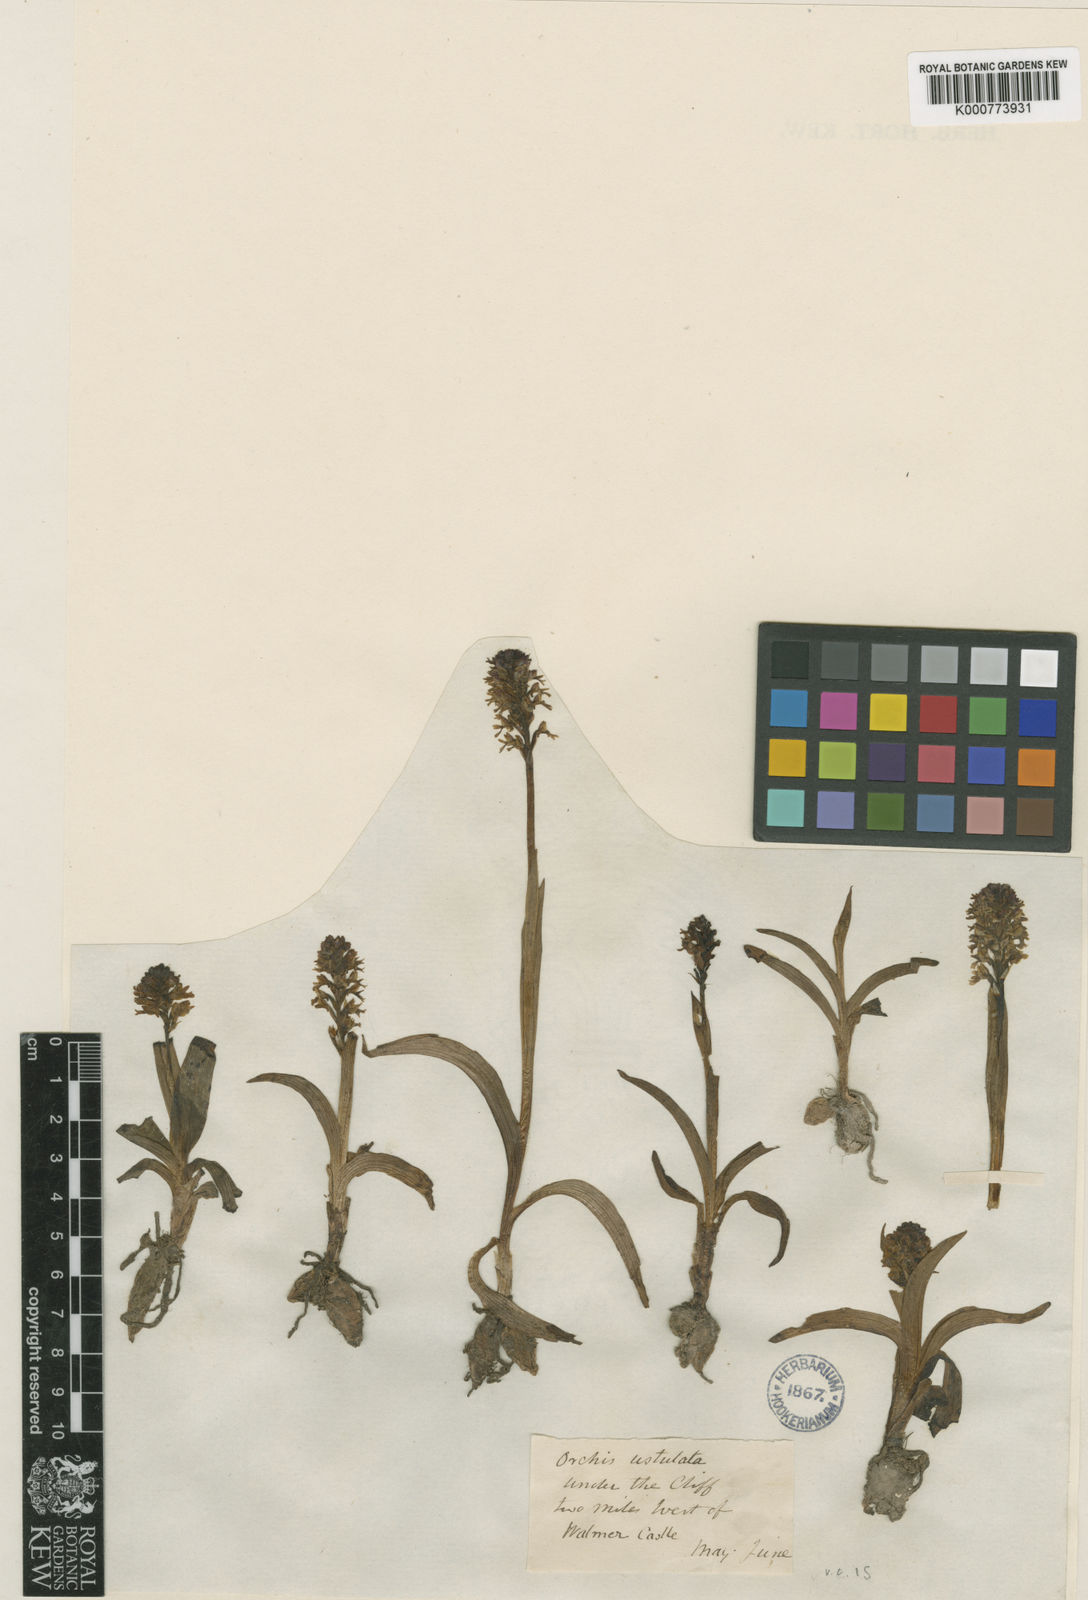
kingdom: Plantae
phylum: Tracheophyta
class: Liliopsida
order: Asparagales
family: Orchidaceae
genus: Neotinea
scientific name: Neotinea ustulata
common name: Burnt orchid
